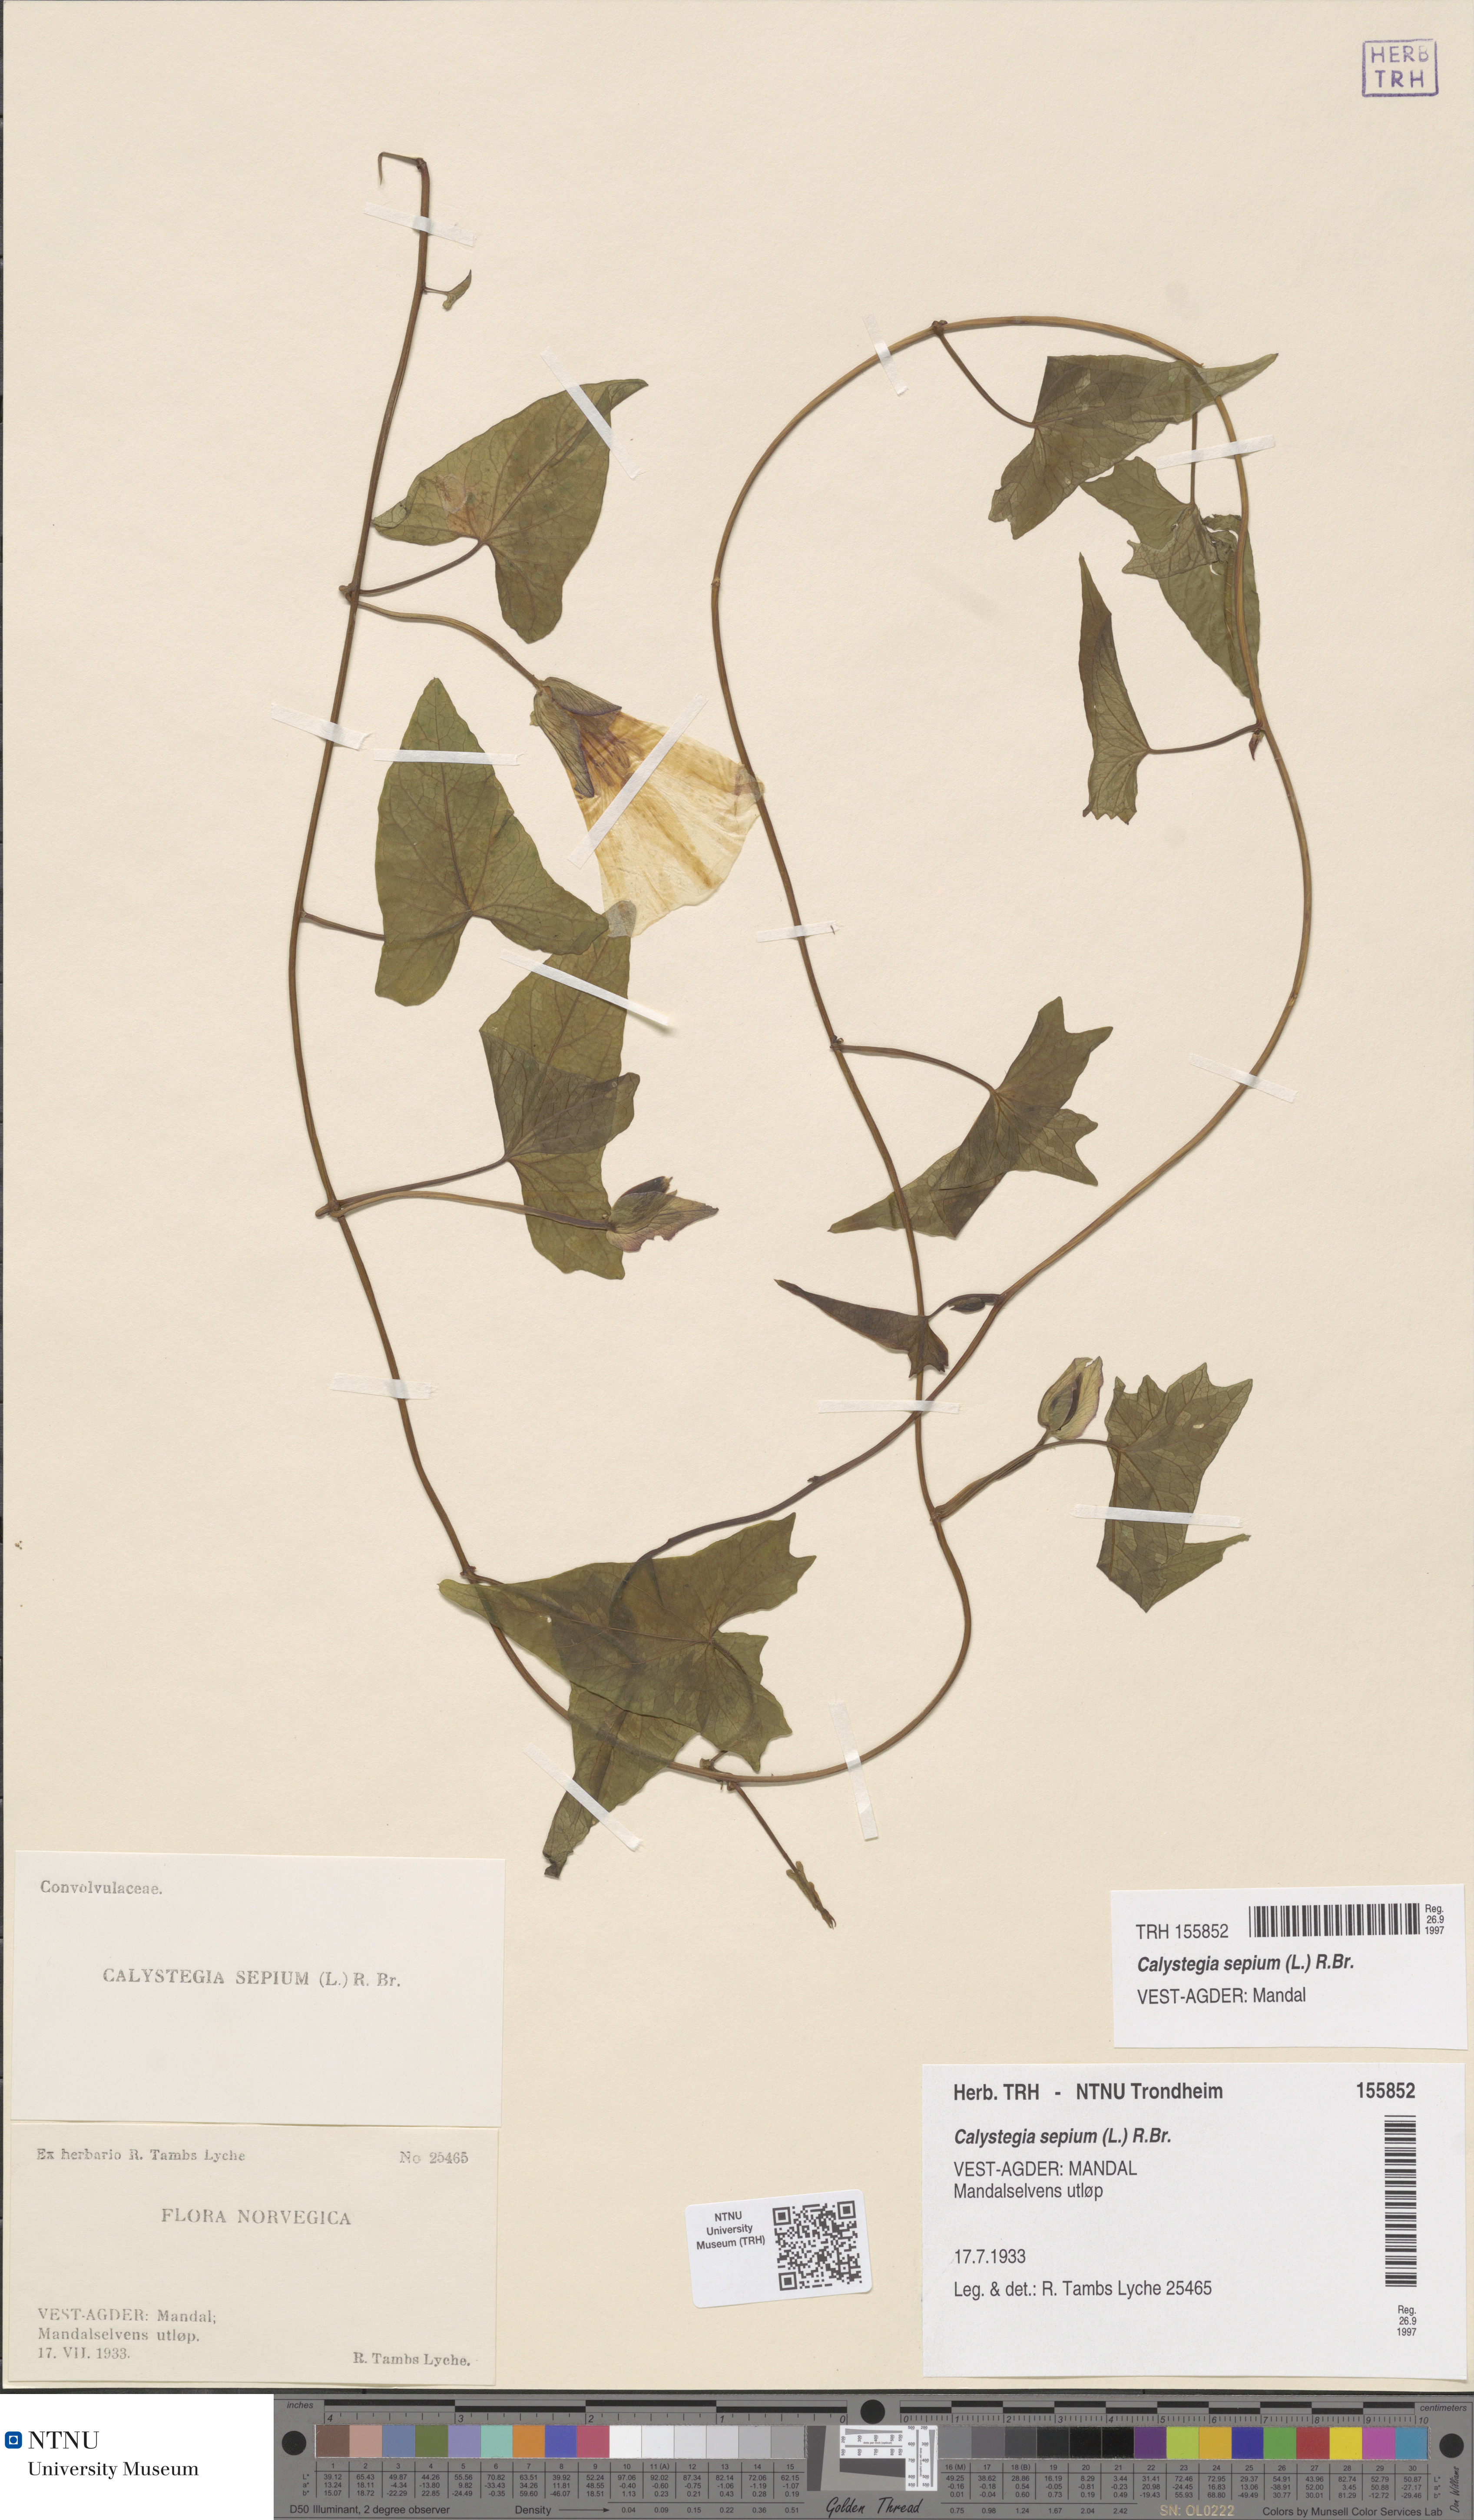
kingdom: Plantae
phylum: Tracheophyta
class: Magnoliopsida
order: Solanales
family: Convolvulaceae
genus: Calystegia
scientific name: Calystegia sepium
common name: Hedge bindweed
